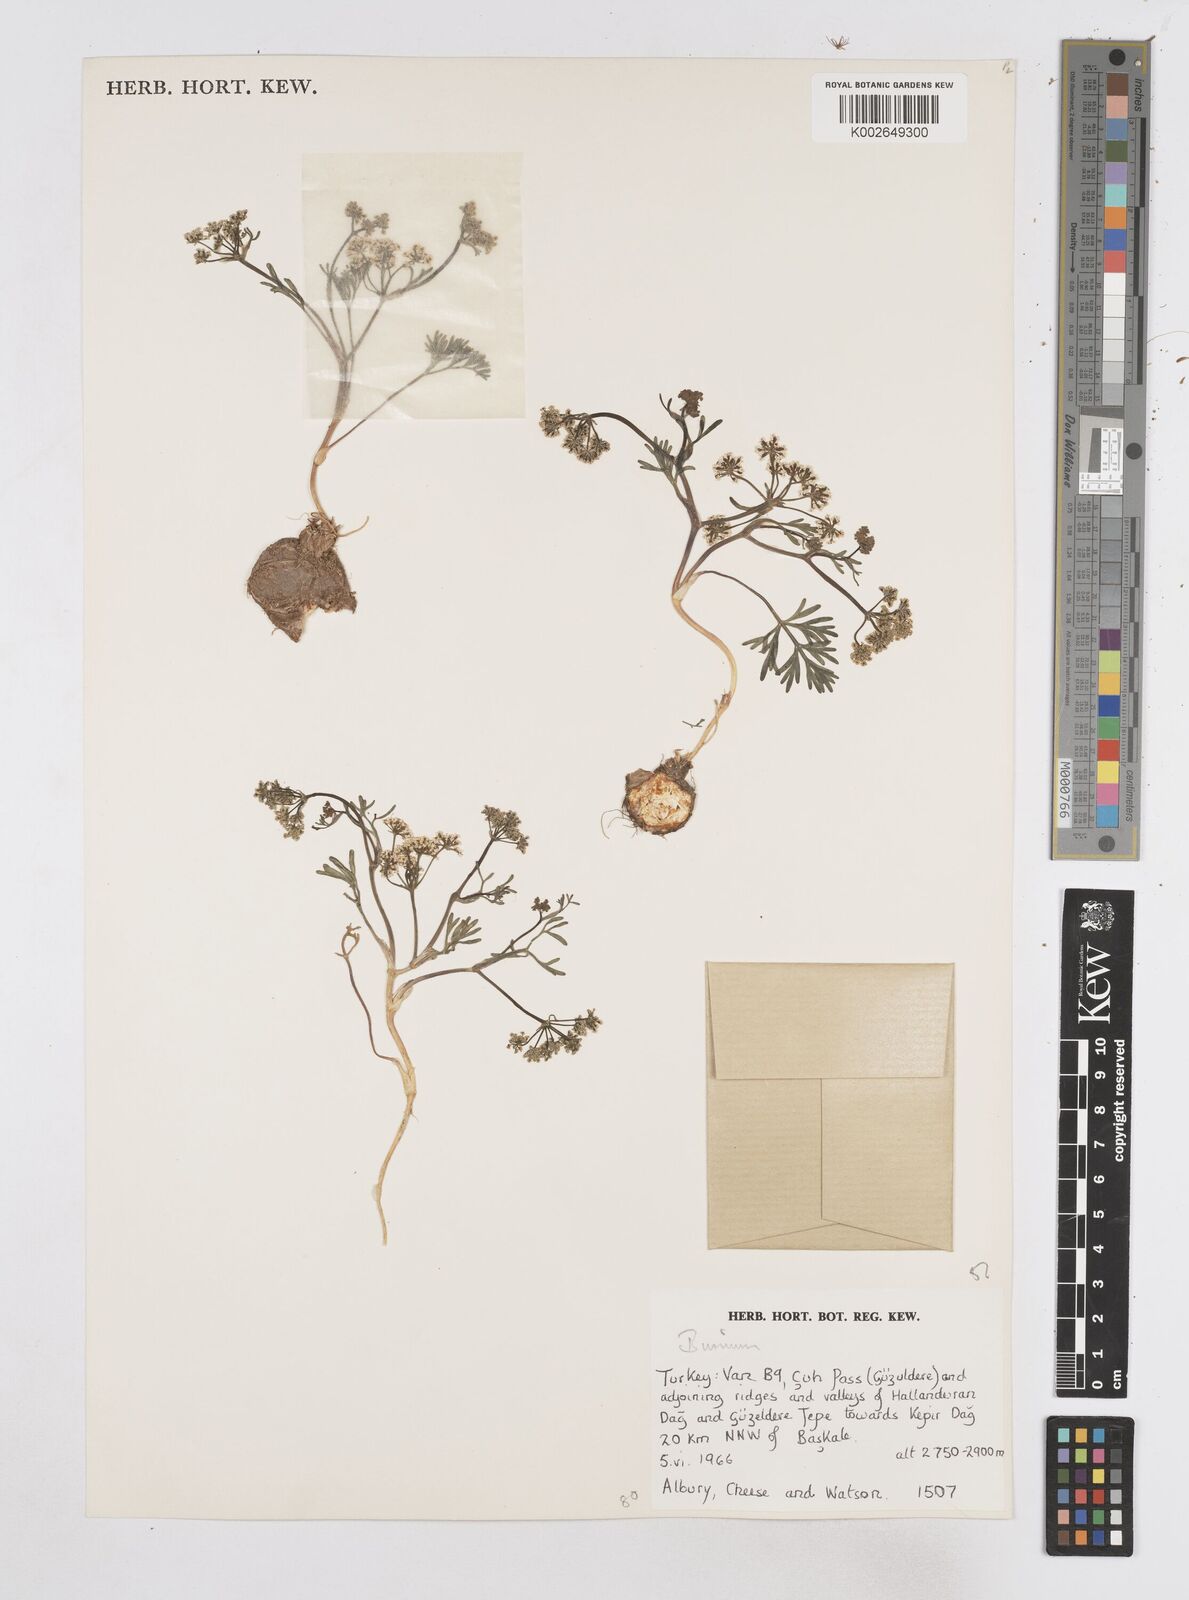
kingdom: Plantae
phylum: Tracheophyta
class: Magnoliopsida
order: Apiales
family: Apiaceae
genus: Bunium
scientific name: Bunium
